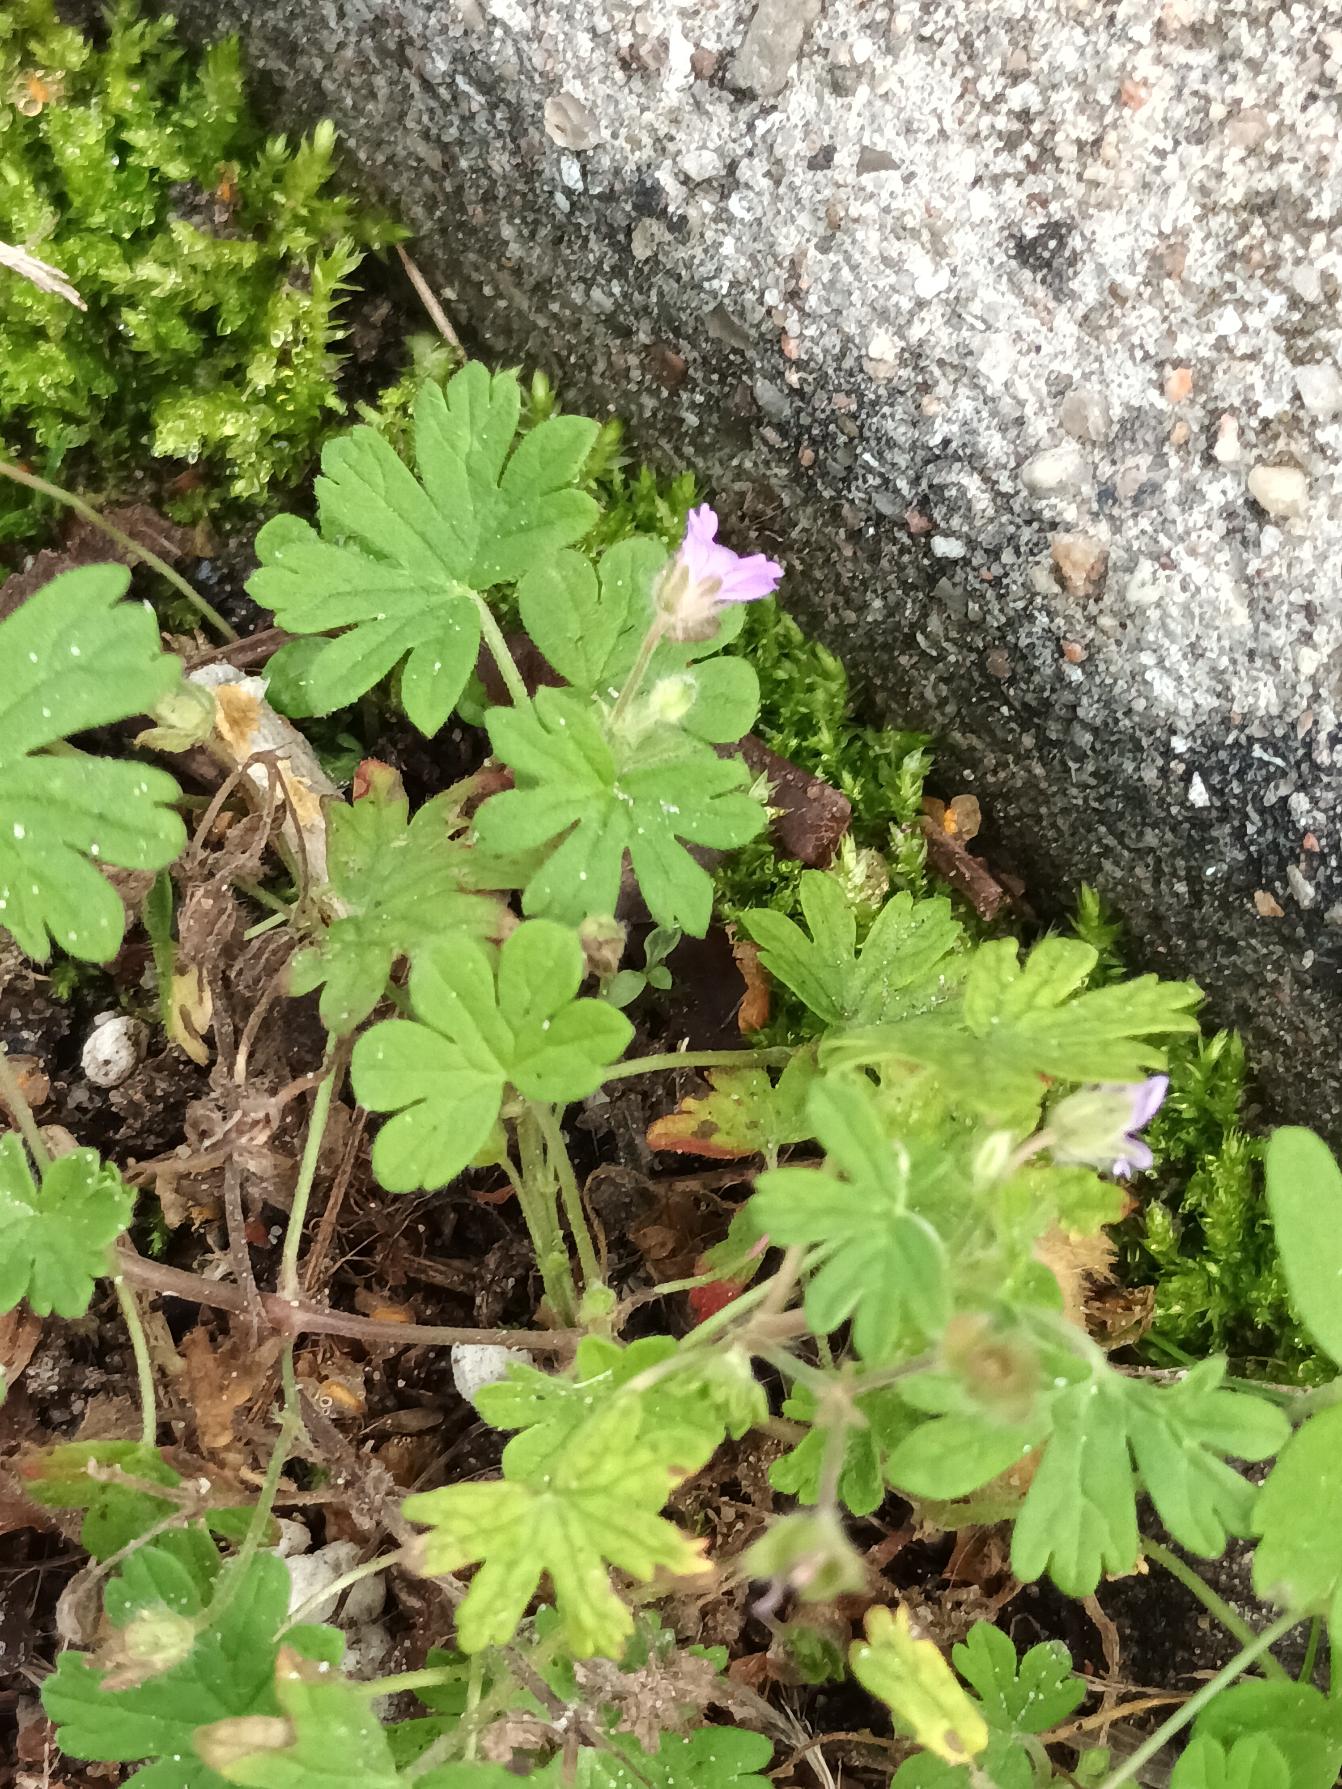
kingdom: Plantae
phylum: Tracheophyta
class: Magnoliopsida
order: Geraniales
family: Geraniaceae
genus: Geranium
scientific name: Geranium pusillum
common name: Liden storkenæb
